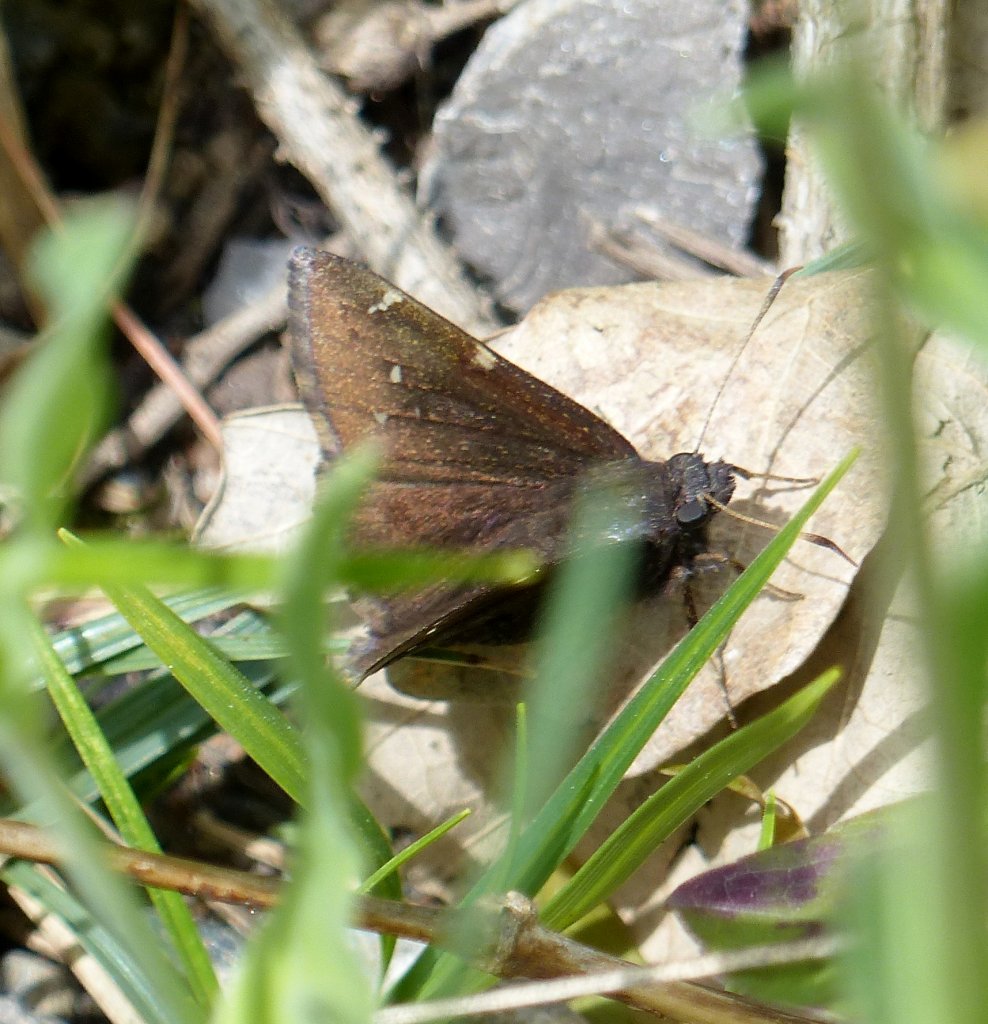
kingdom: Animalia
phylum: Arthropoda
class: Insecta
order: Lepidoptera
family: Hesperiidae
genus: Autochton
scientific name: Autochton
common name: Northern Cloudywing
